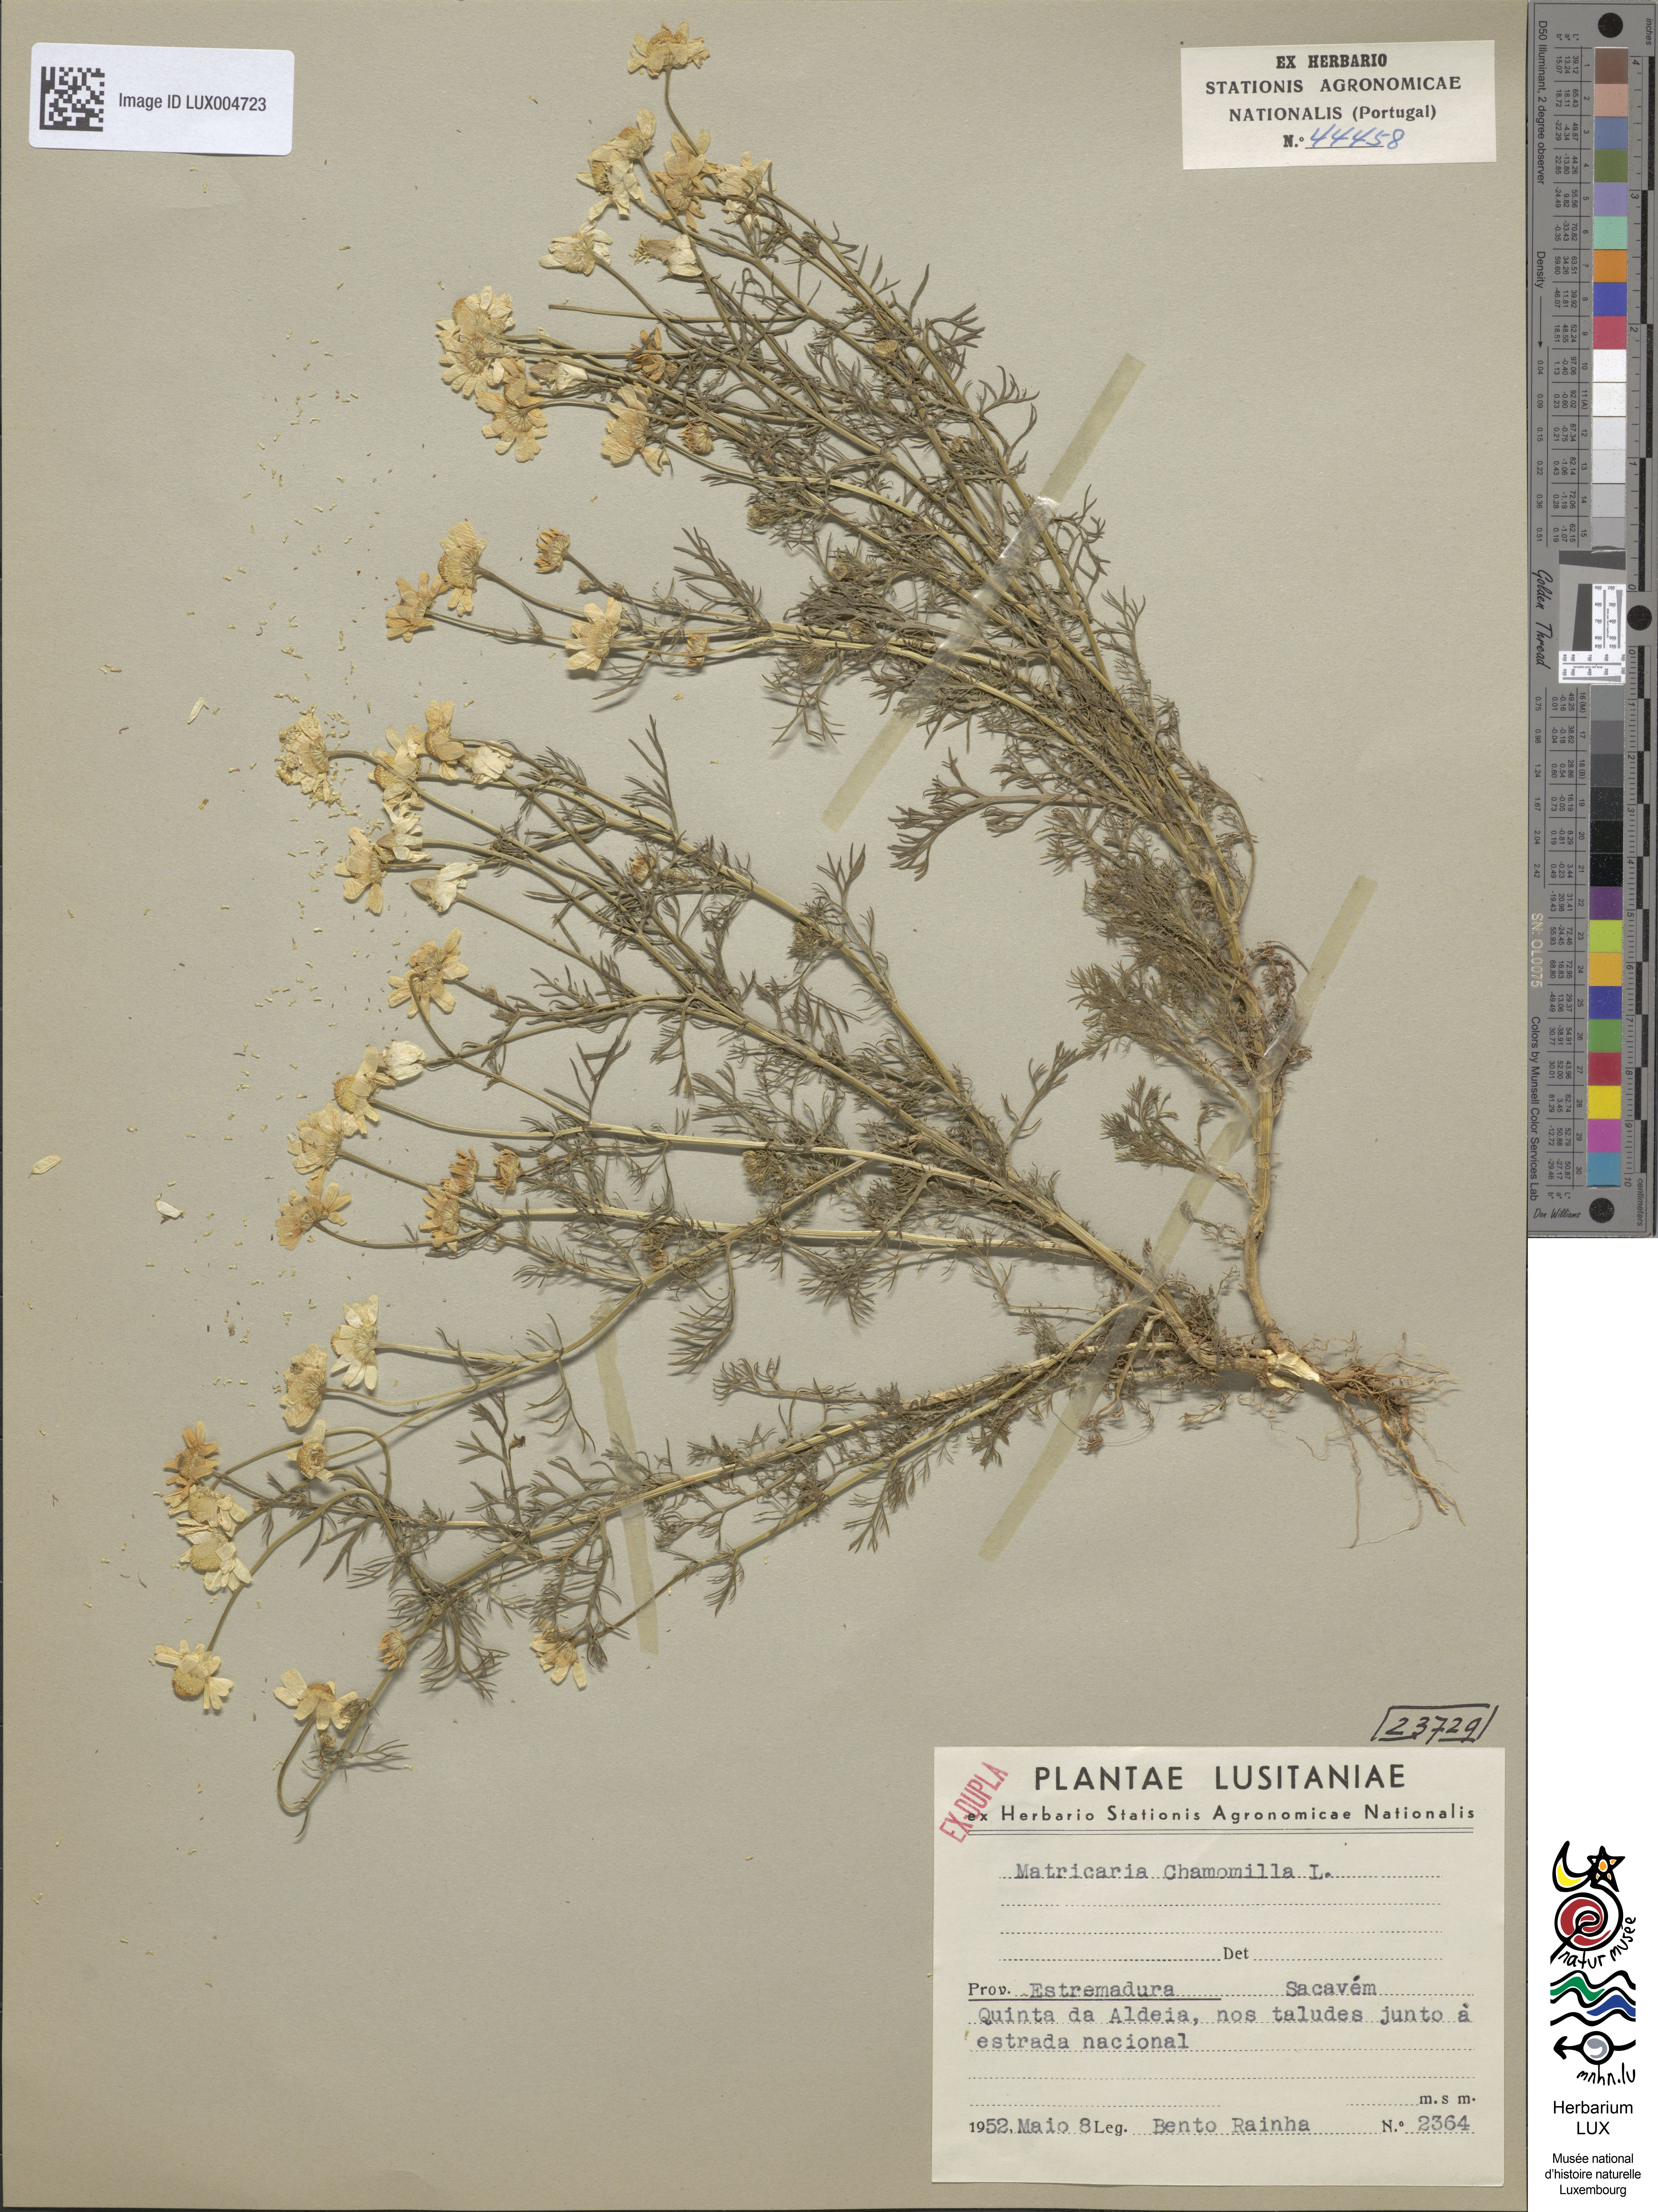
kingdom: Plantae
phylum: Tracheophyta
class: Magnoliopsida
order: Asterales
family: Asteraceae
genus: Matricaria
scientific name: Matricaria chamomilla
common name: Scented mayweed
